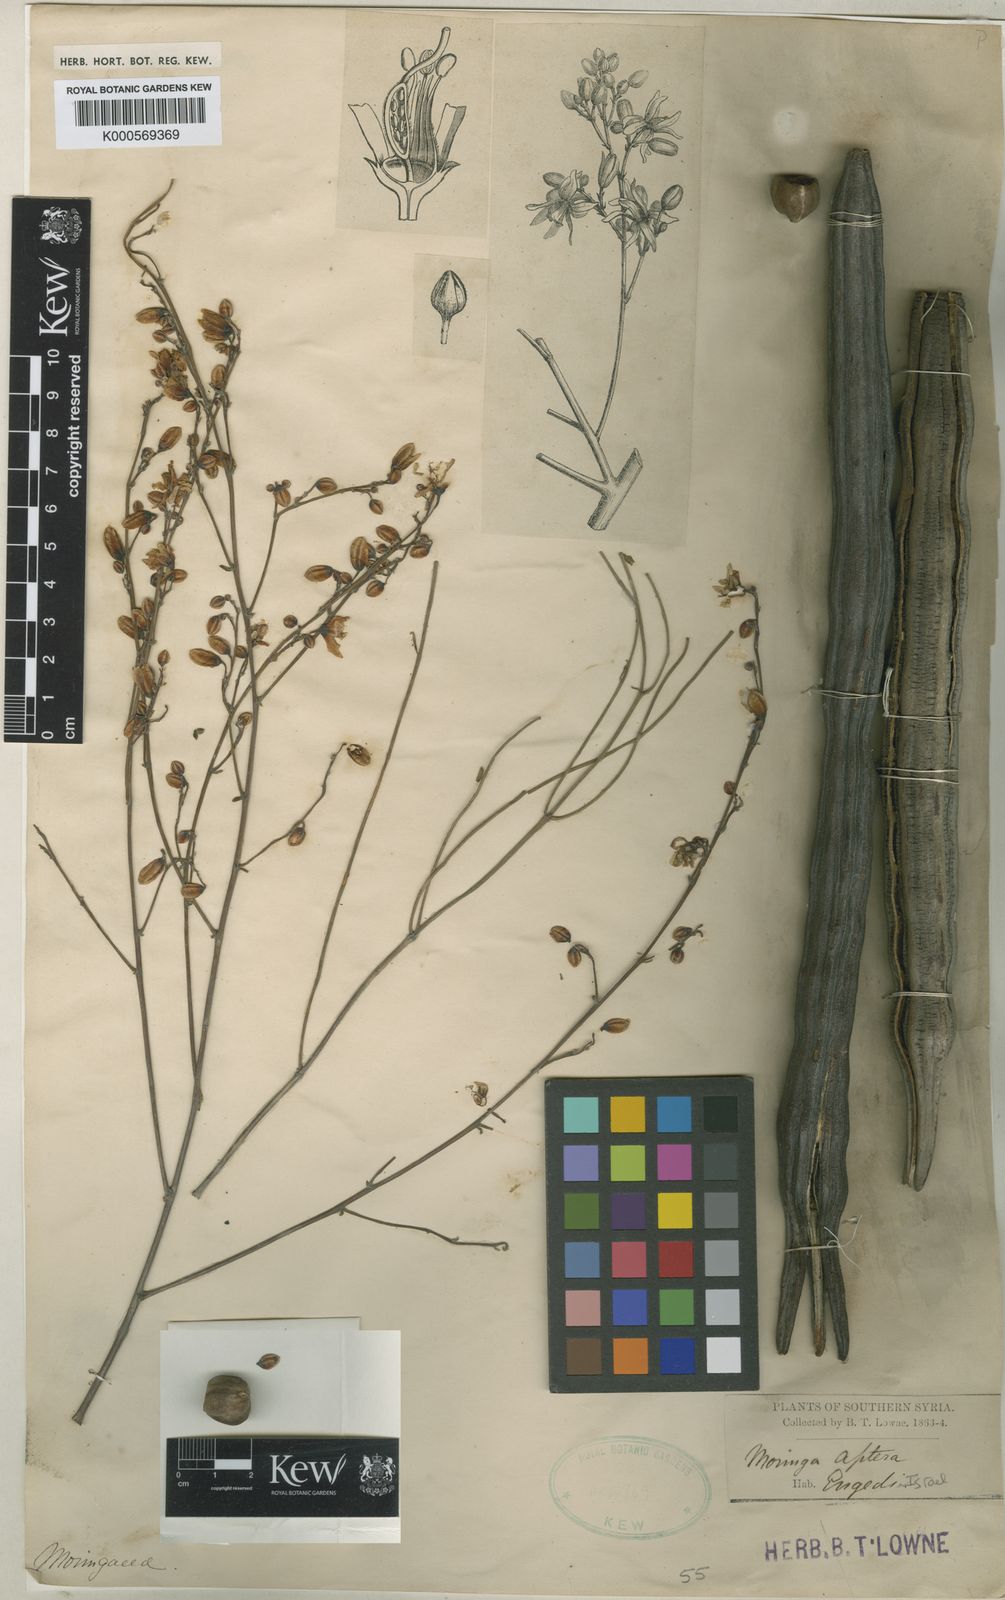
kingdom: Plantae
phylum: Tracheophyta
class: Magnoliopsida
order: Brassicales
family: Moringaceae
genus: Moringa
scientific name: Moringa peregrina
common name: Wild drumstick tree
